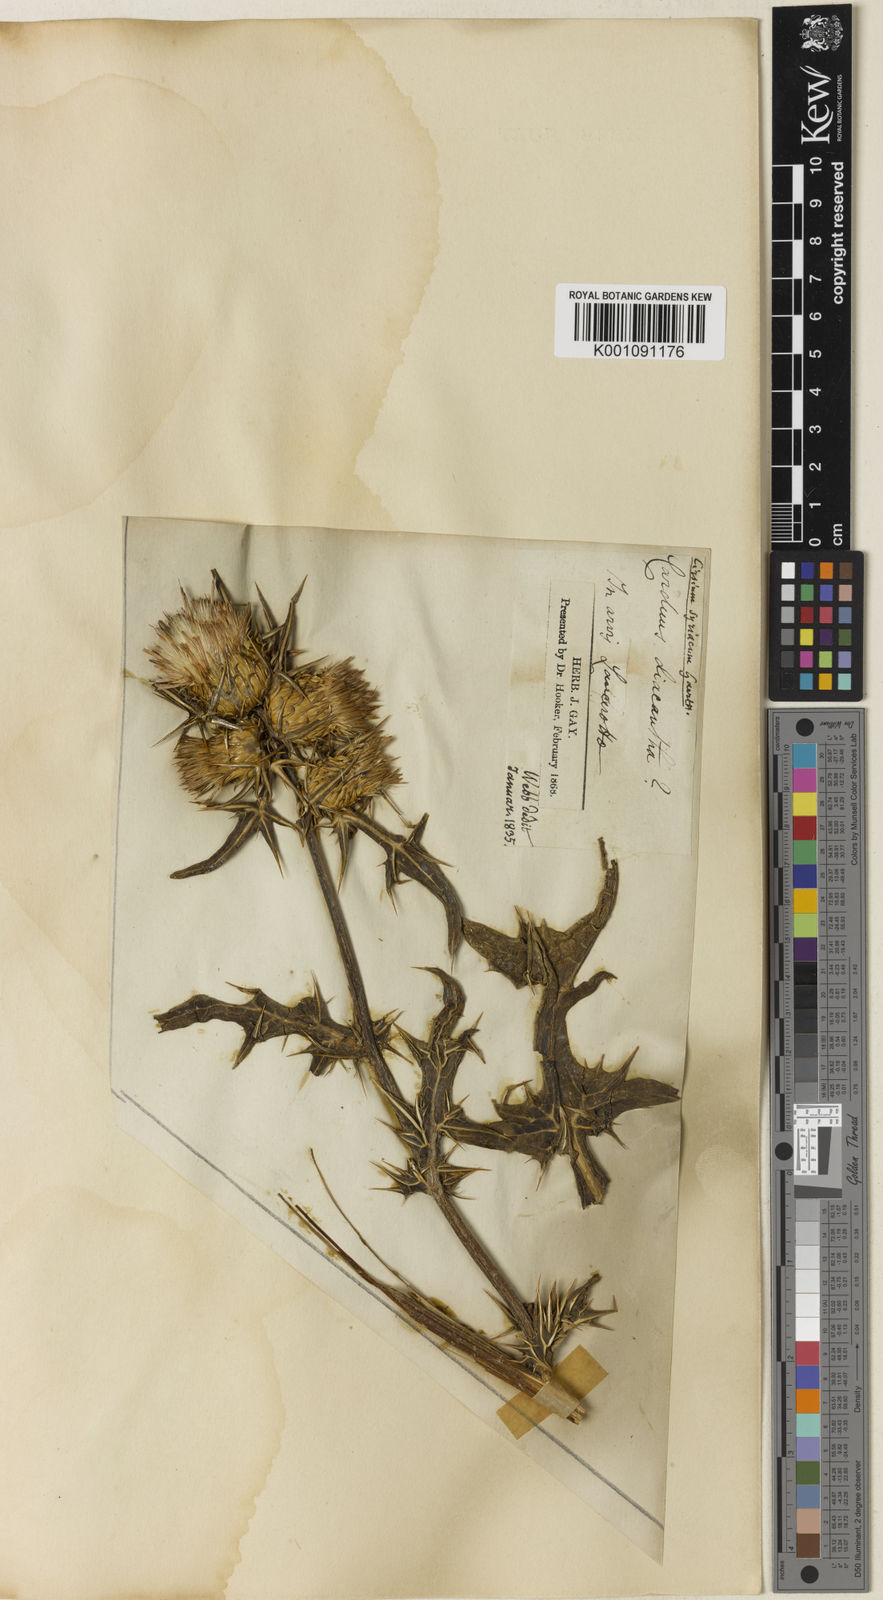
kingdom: Plantae
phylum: Tracheophyta
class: Magnoliopsida
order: Asterales
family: Asteraceae
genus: Notobasis
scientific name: Notobasis syriaca
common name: Syrian thistle
